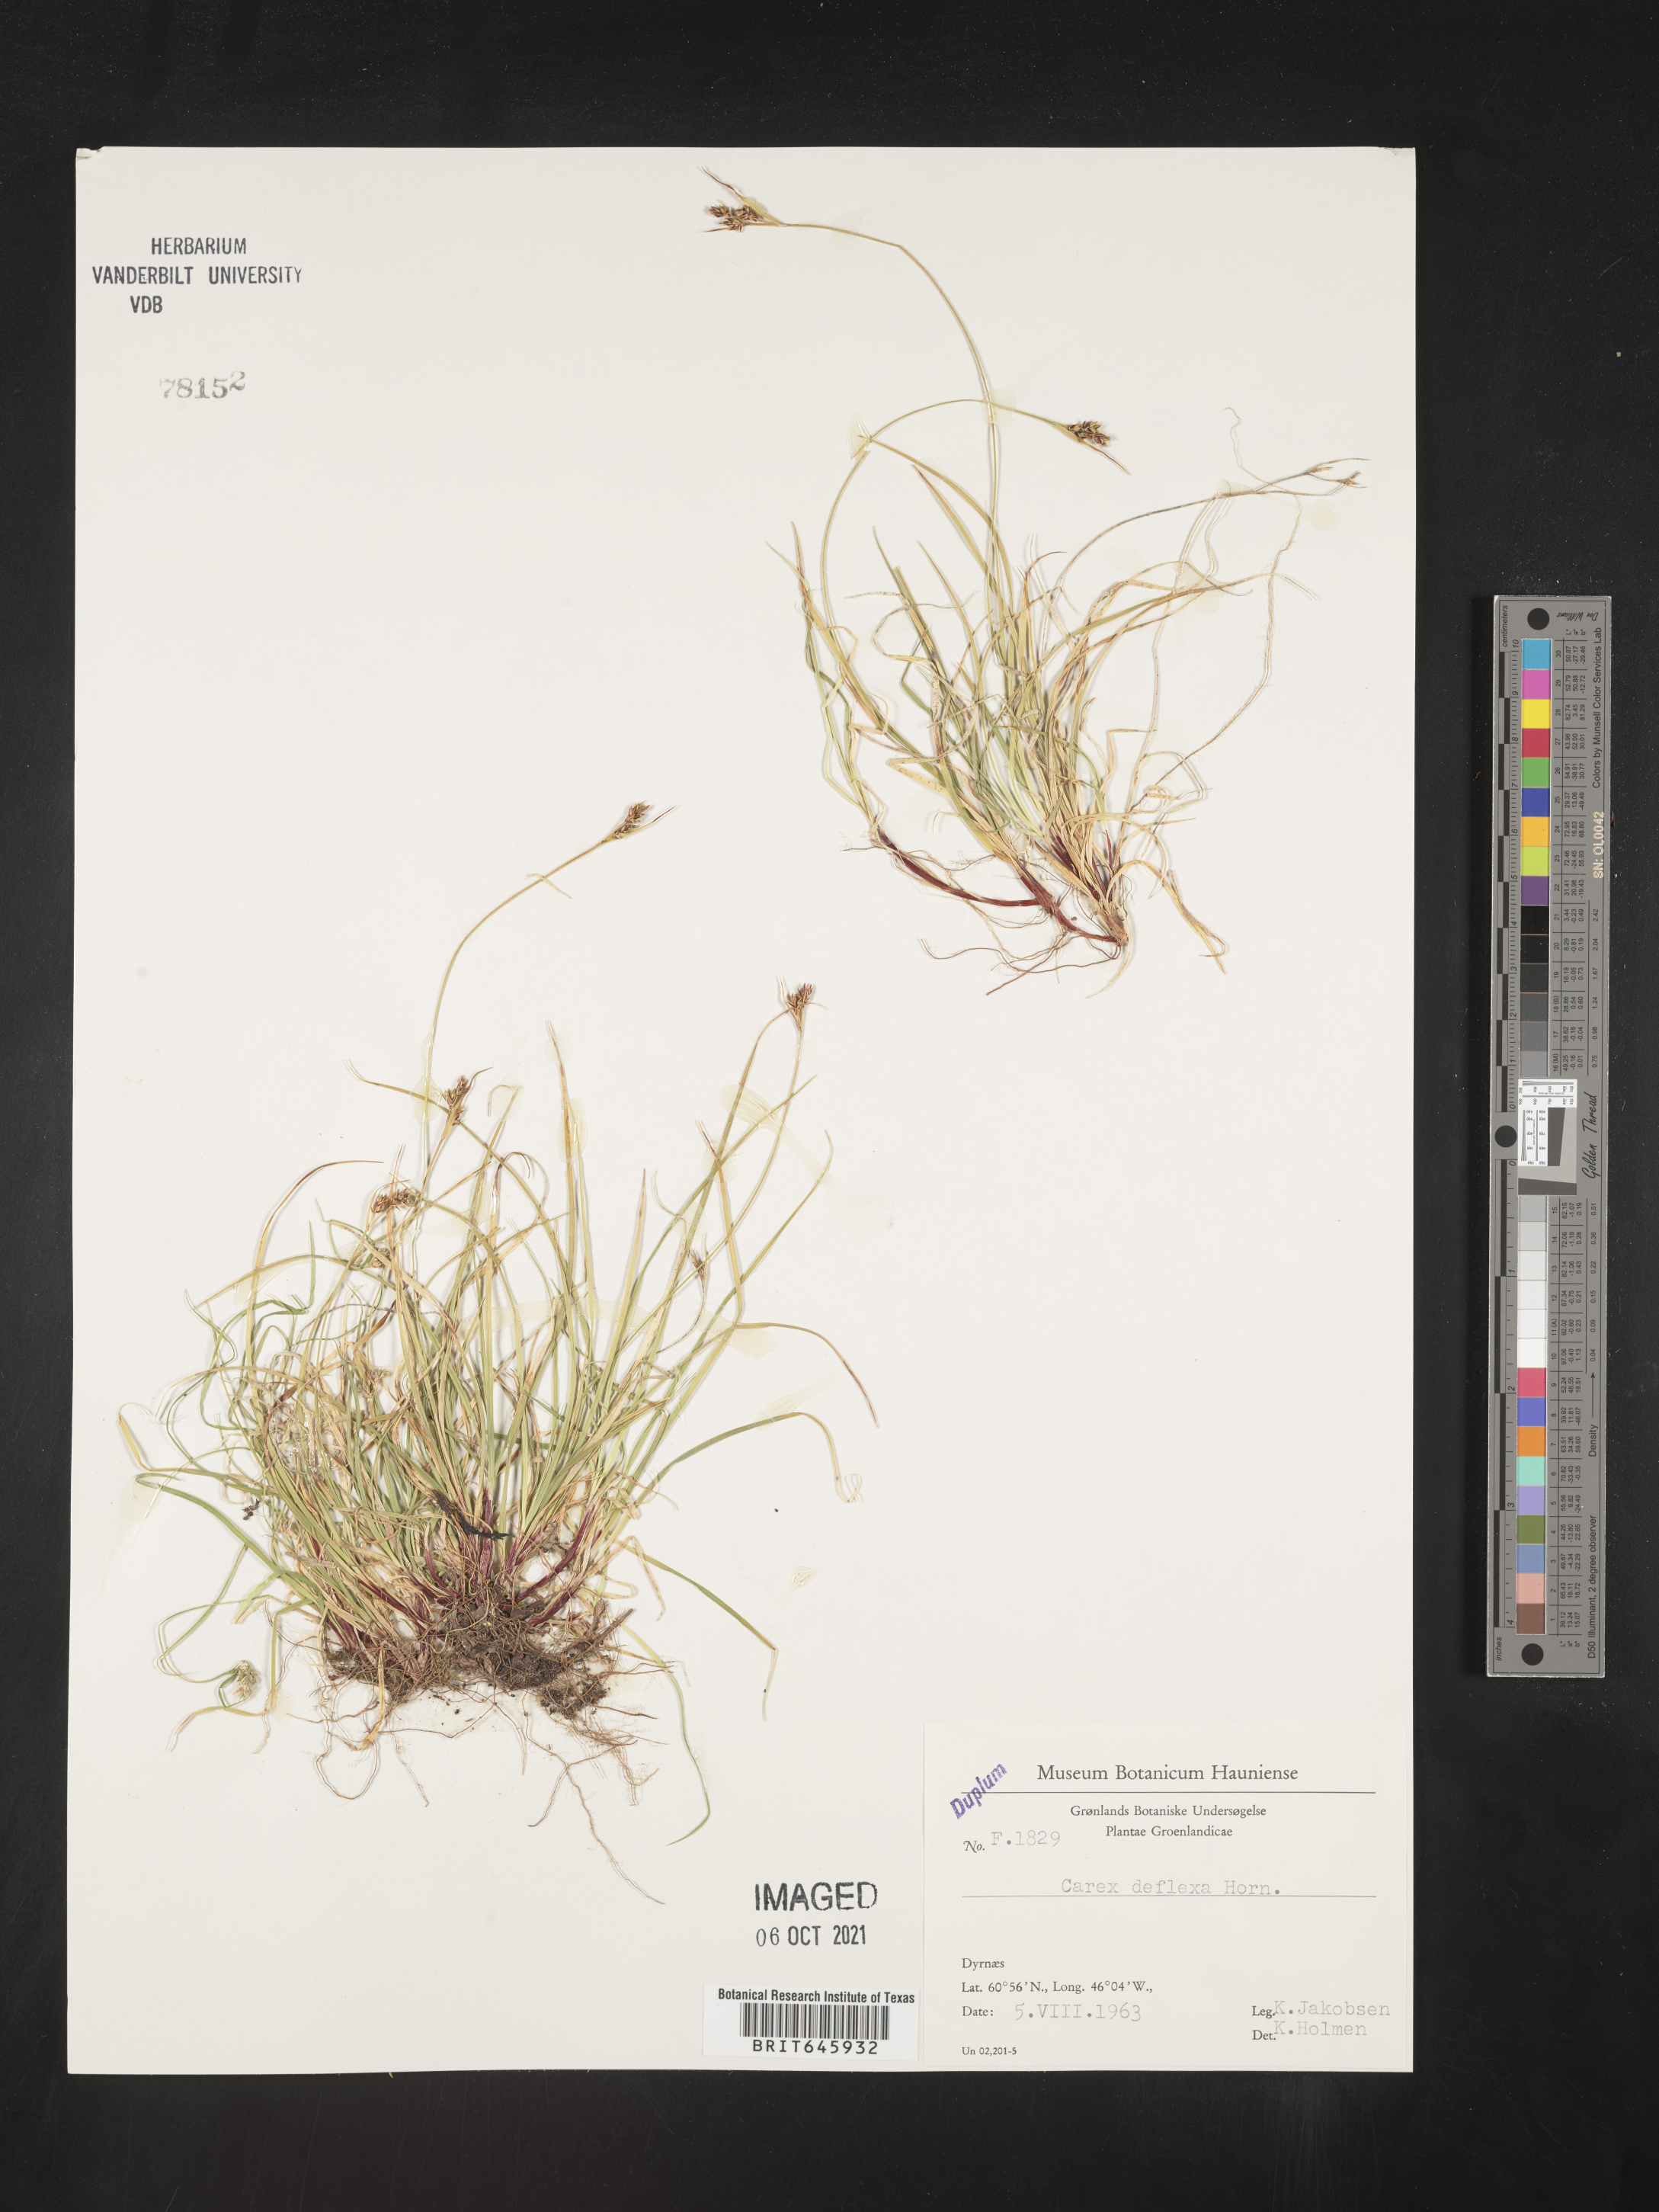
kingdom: Plantae
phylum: Tracheophyta
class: Liliopsida
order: Poales
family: Cyperaceae
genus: Carex
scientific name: Carex deflexa
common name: Bent northern sedge
